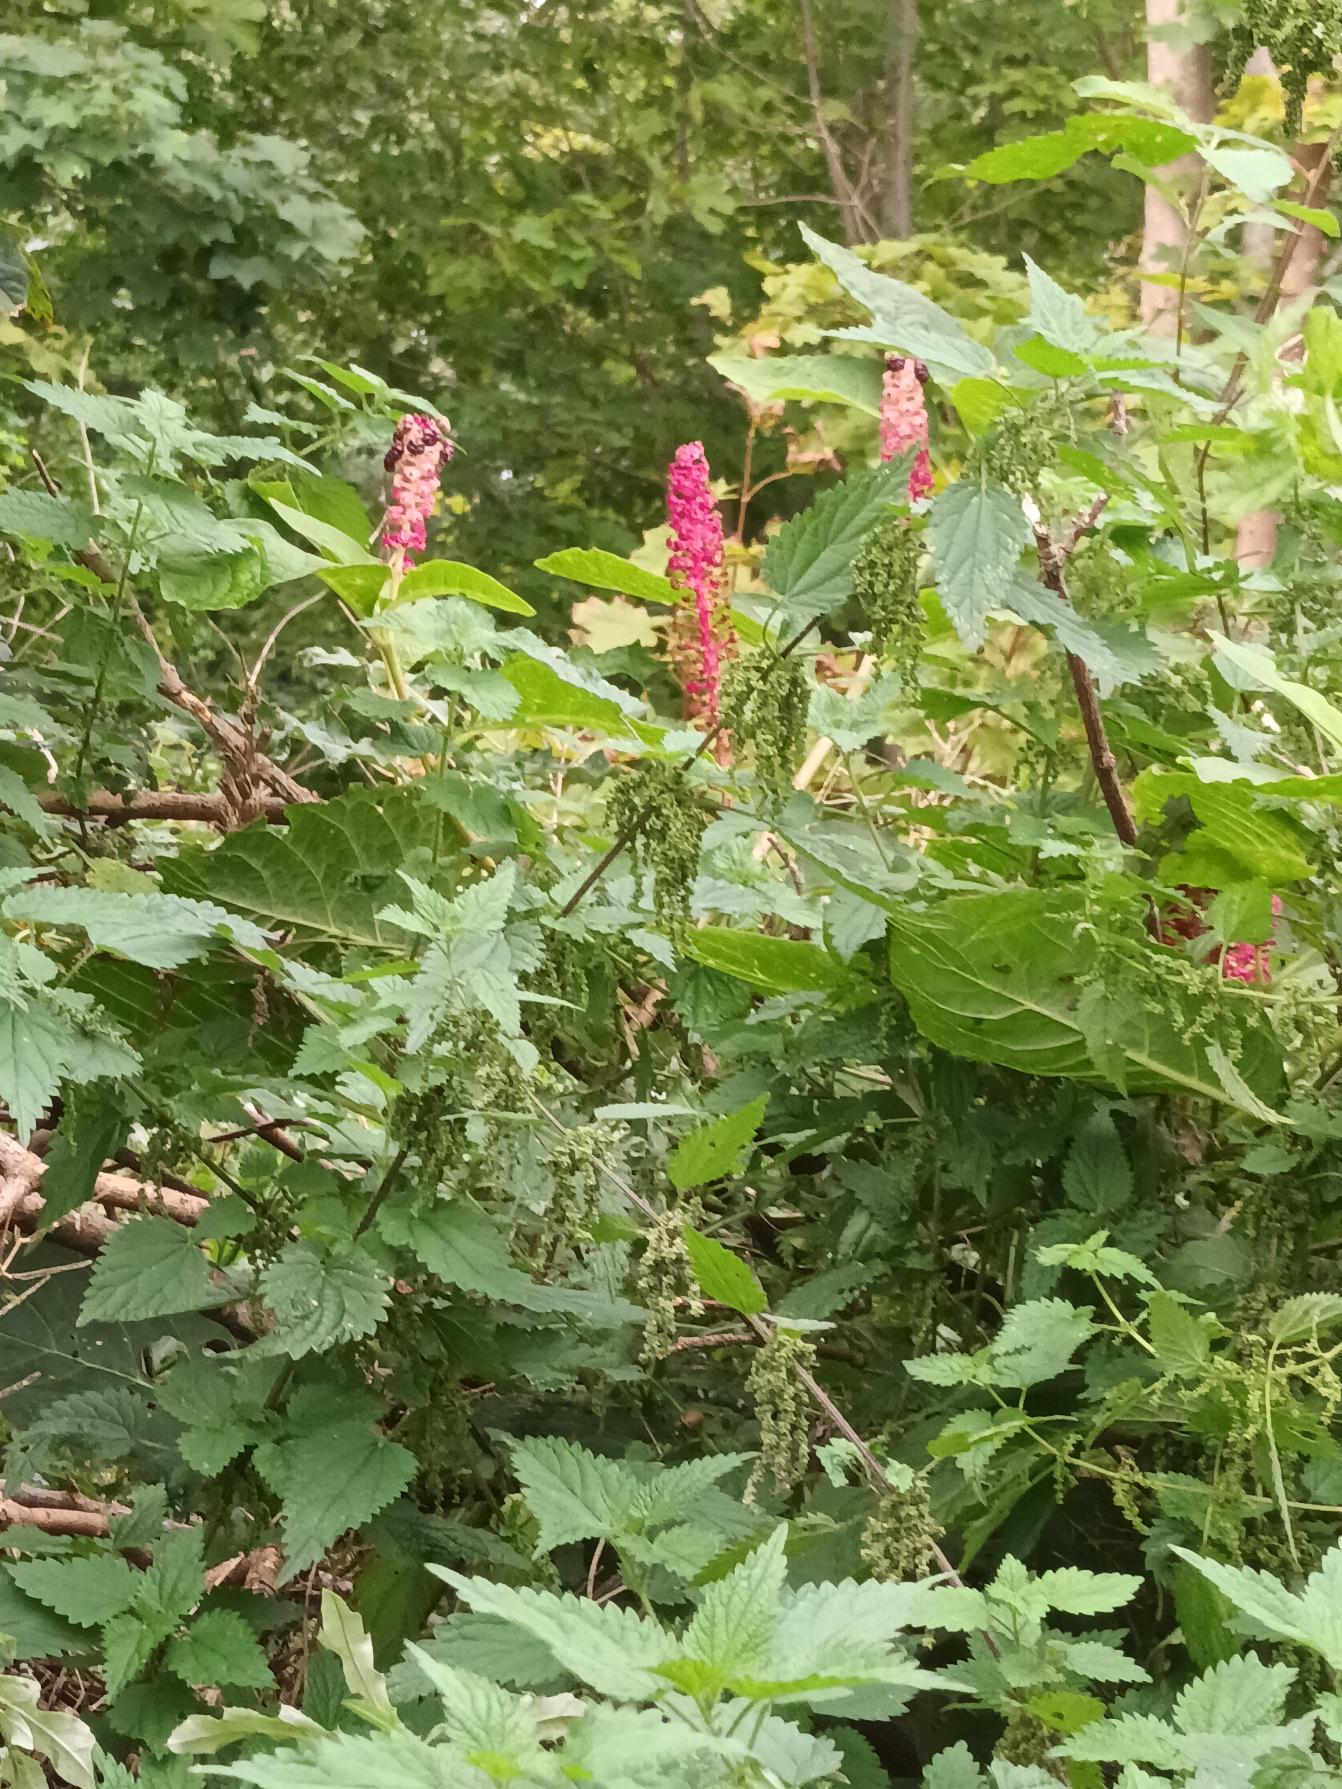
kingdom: Plantae
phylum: Tracheophyta
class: Magnoliopsida
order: Caryophyllales
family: Phytolaccaceae
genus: Phytolacca
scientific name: Phytolacca acinosa
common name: Asiatisk kermesbær
